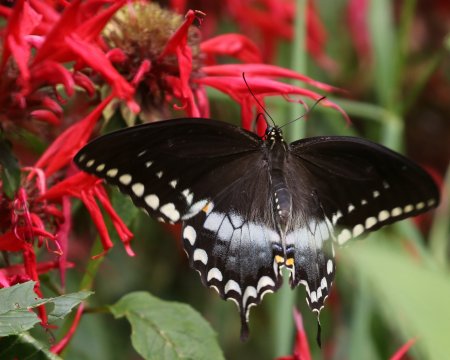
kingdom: Animalia
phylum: Arthropoda
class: Insecta
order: Lepidoptera
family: Papilionidae
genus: Pterourus
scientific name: Pterourus troilus
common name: Spicebush Swallowtail
